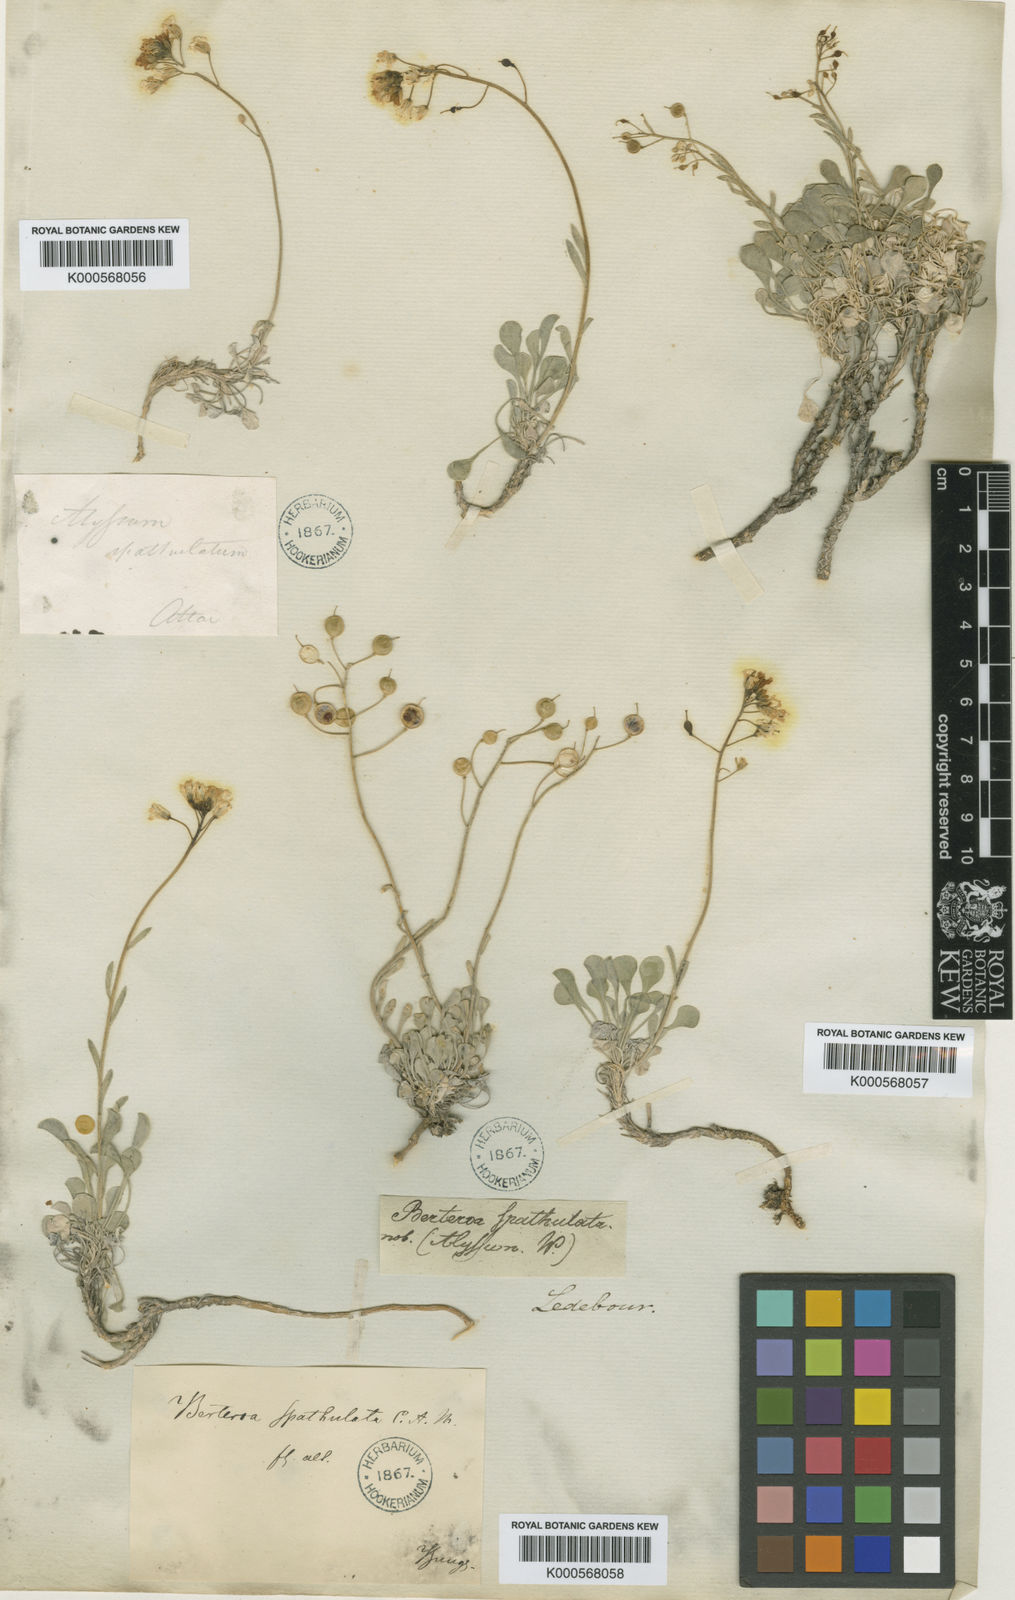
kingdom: Plantae
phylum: Tracheophyta
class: Magnoliopsida
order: Brassicales
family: Brassicaceae
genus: Galitzkya
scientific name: Galitzkya
